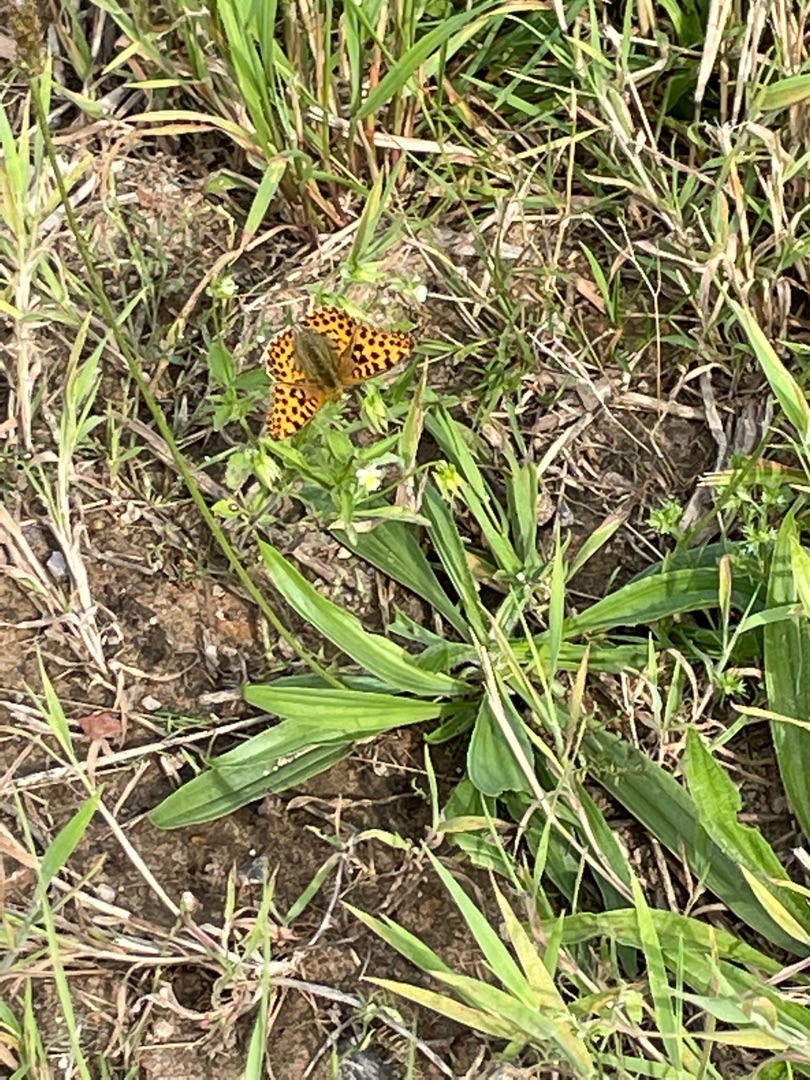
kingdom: Animalia
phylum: Arthropoda
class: Insecta
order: Lepidoptera
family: Nymphalidae
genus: Issoria
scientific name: Issoria lathonia
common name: Storplettet perlemorsommerfugl
